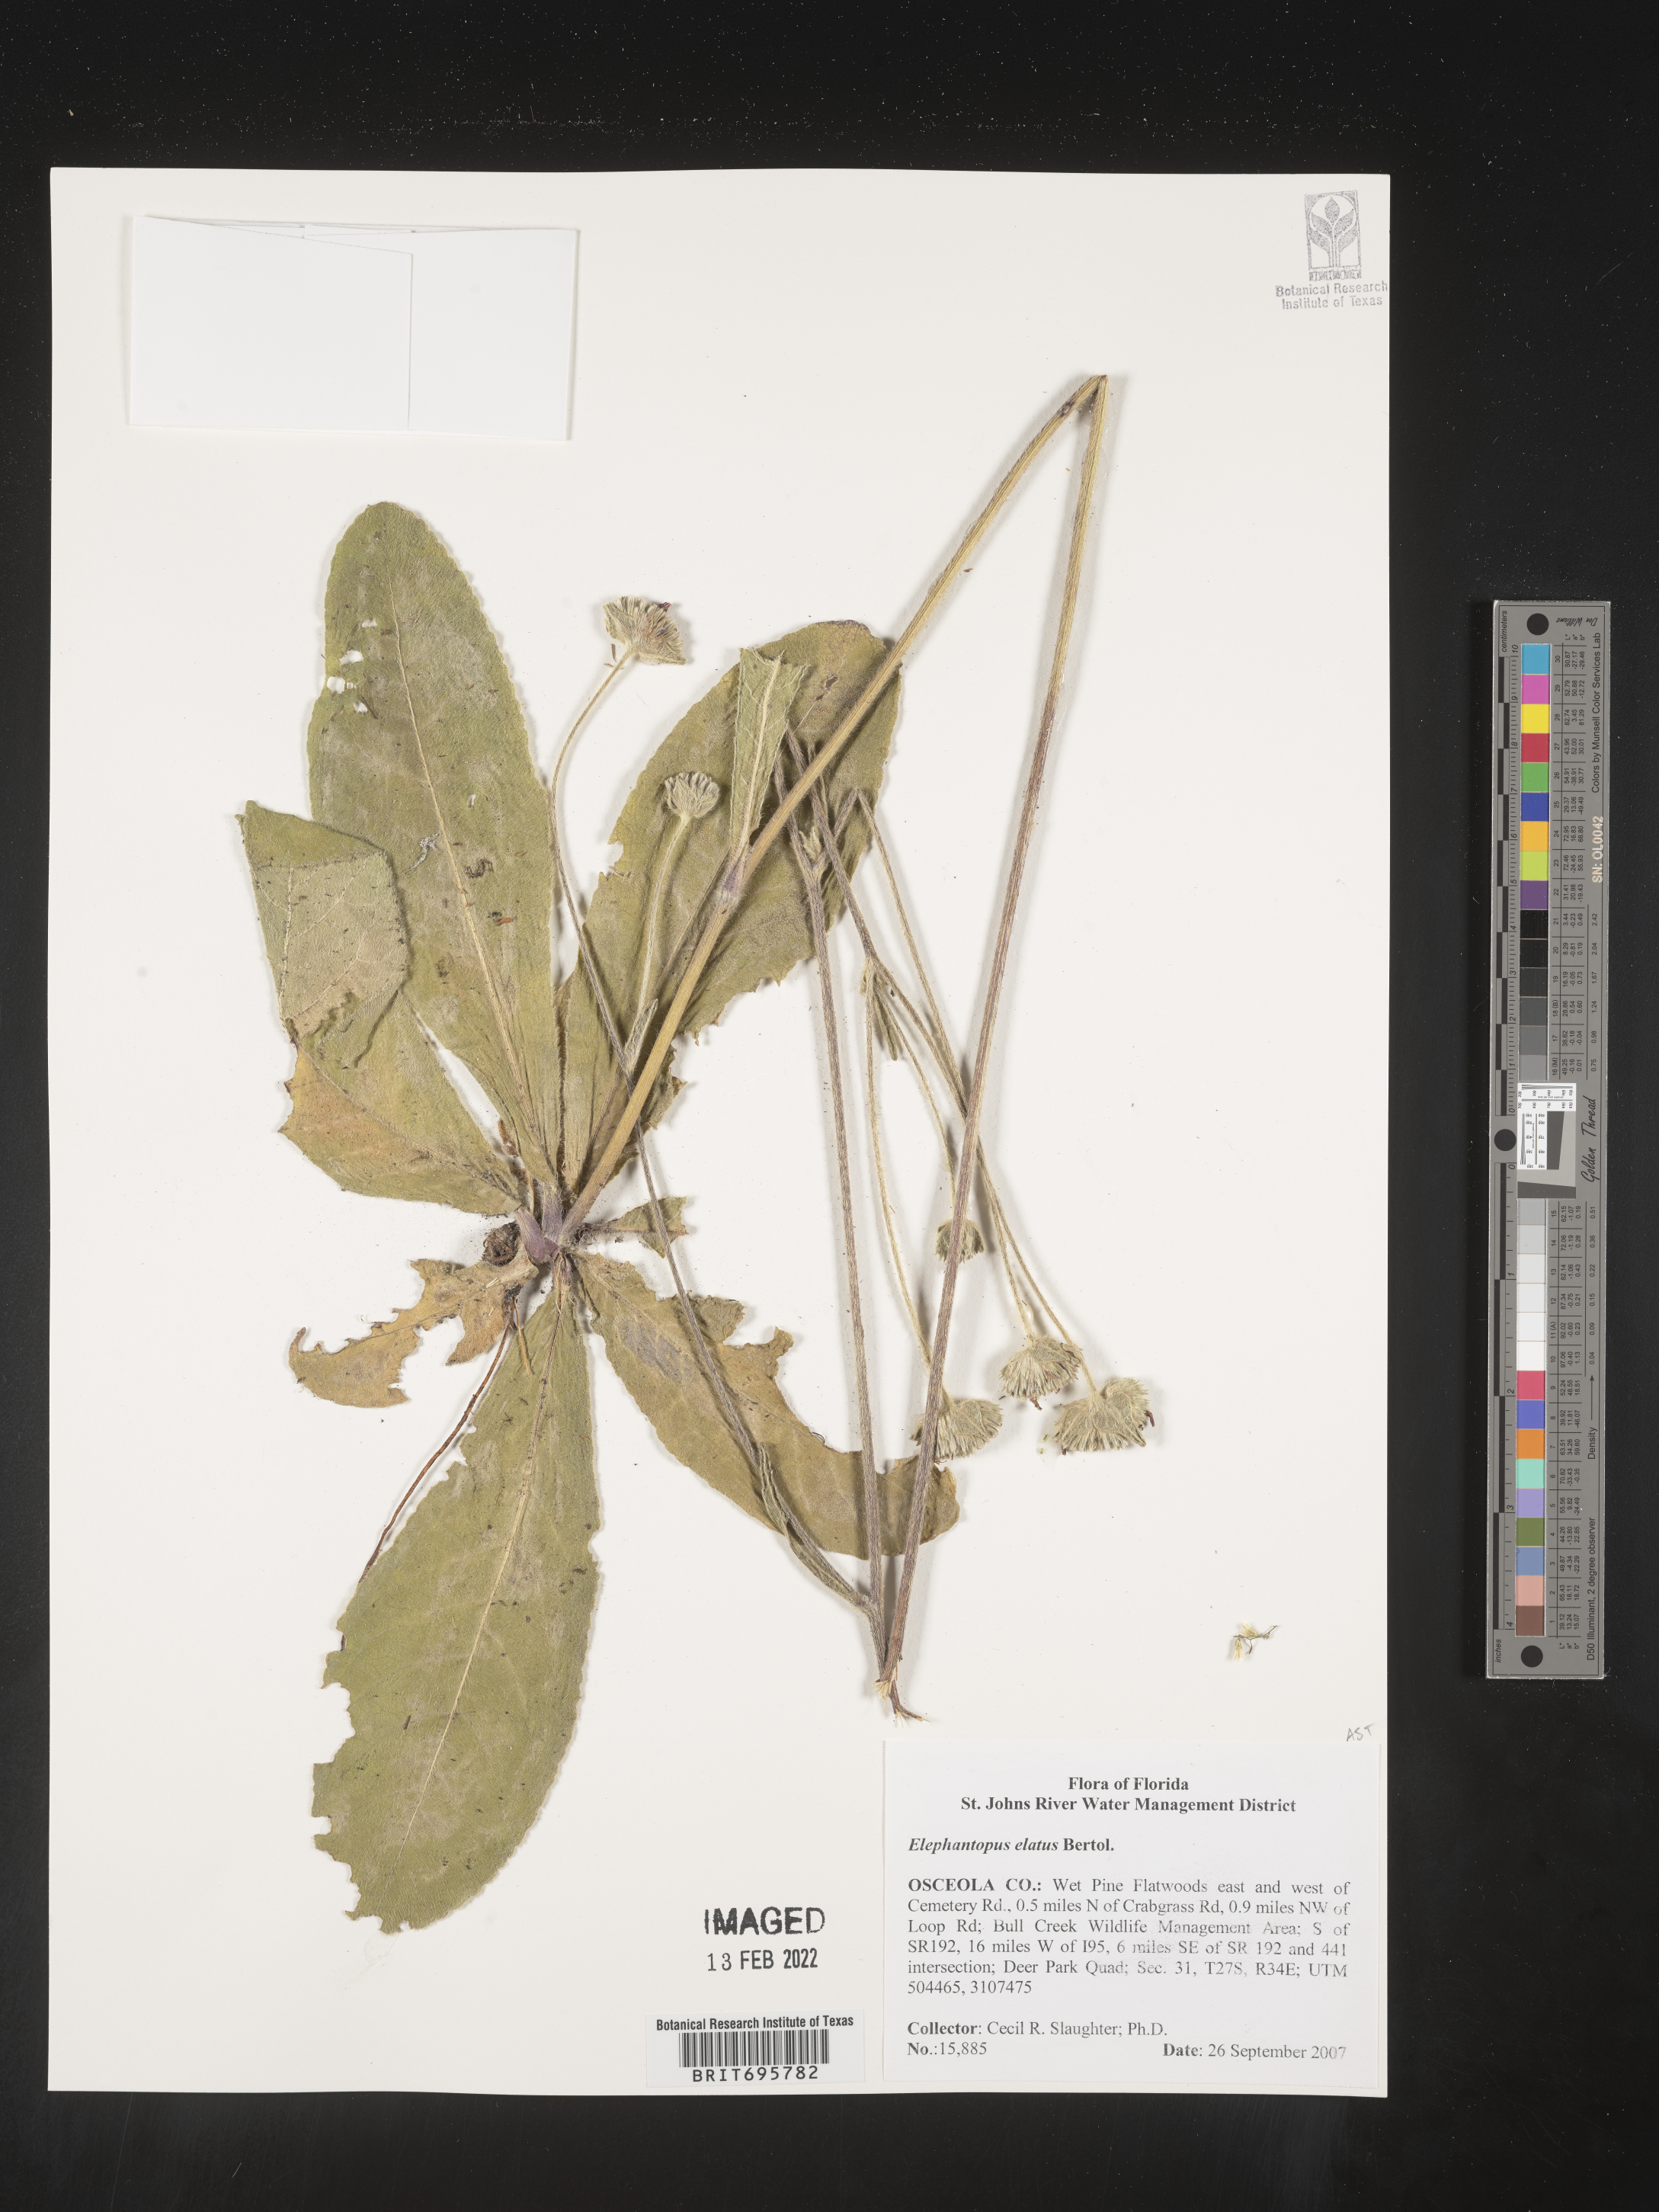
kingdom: Plantae
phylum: Tracheophyta
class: Magnoliopsida
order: Asterales
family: Asteraceae
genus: Elephantopus
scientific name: Elephantopus elatus
